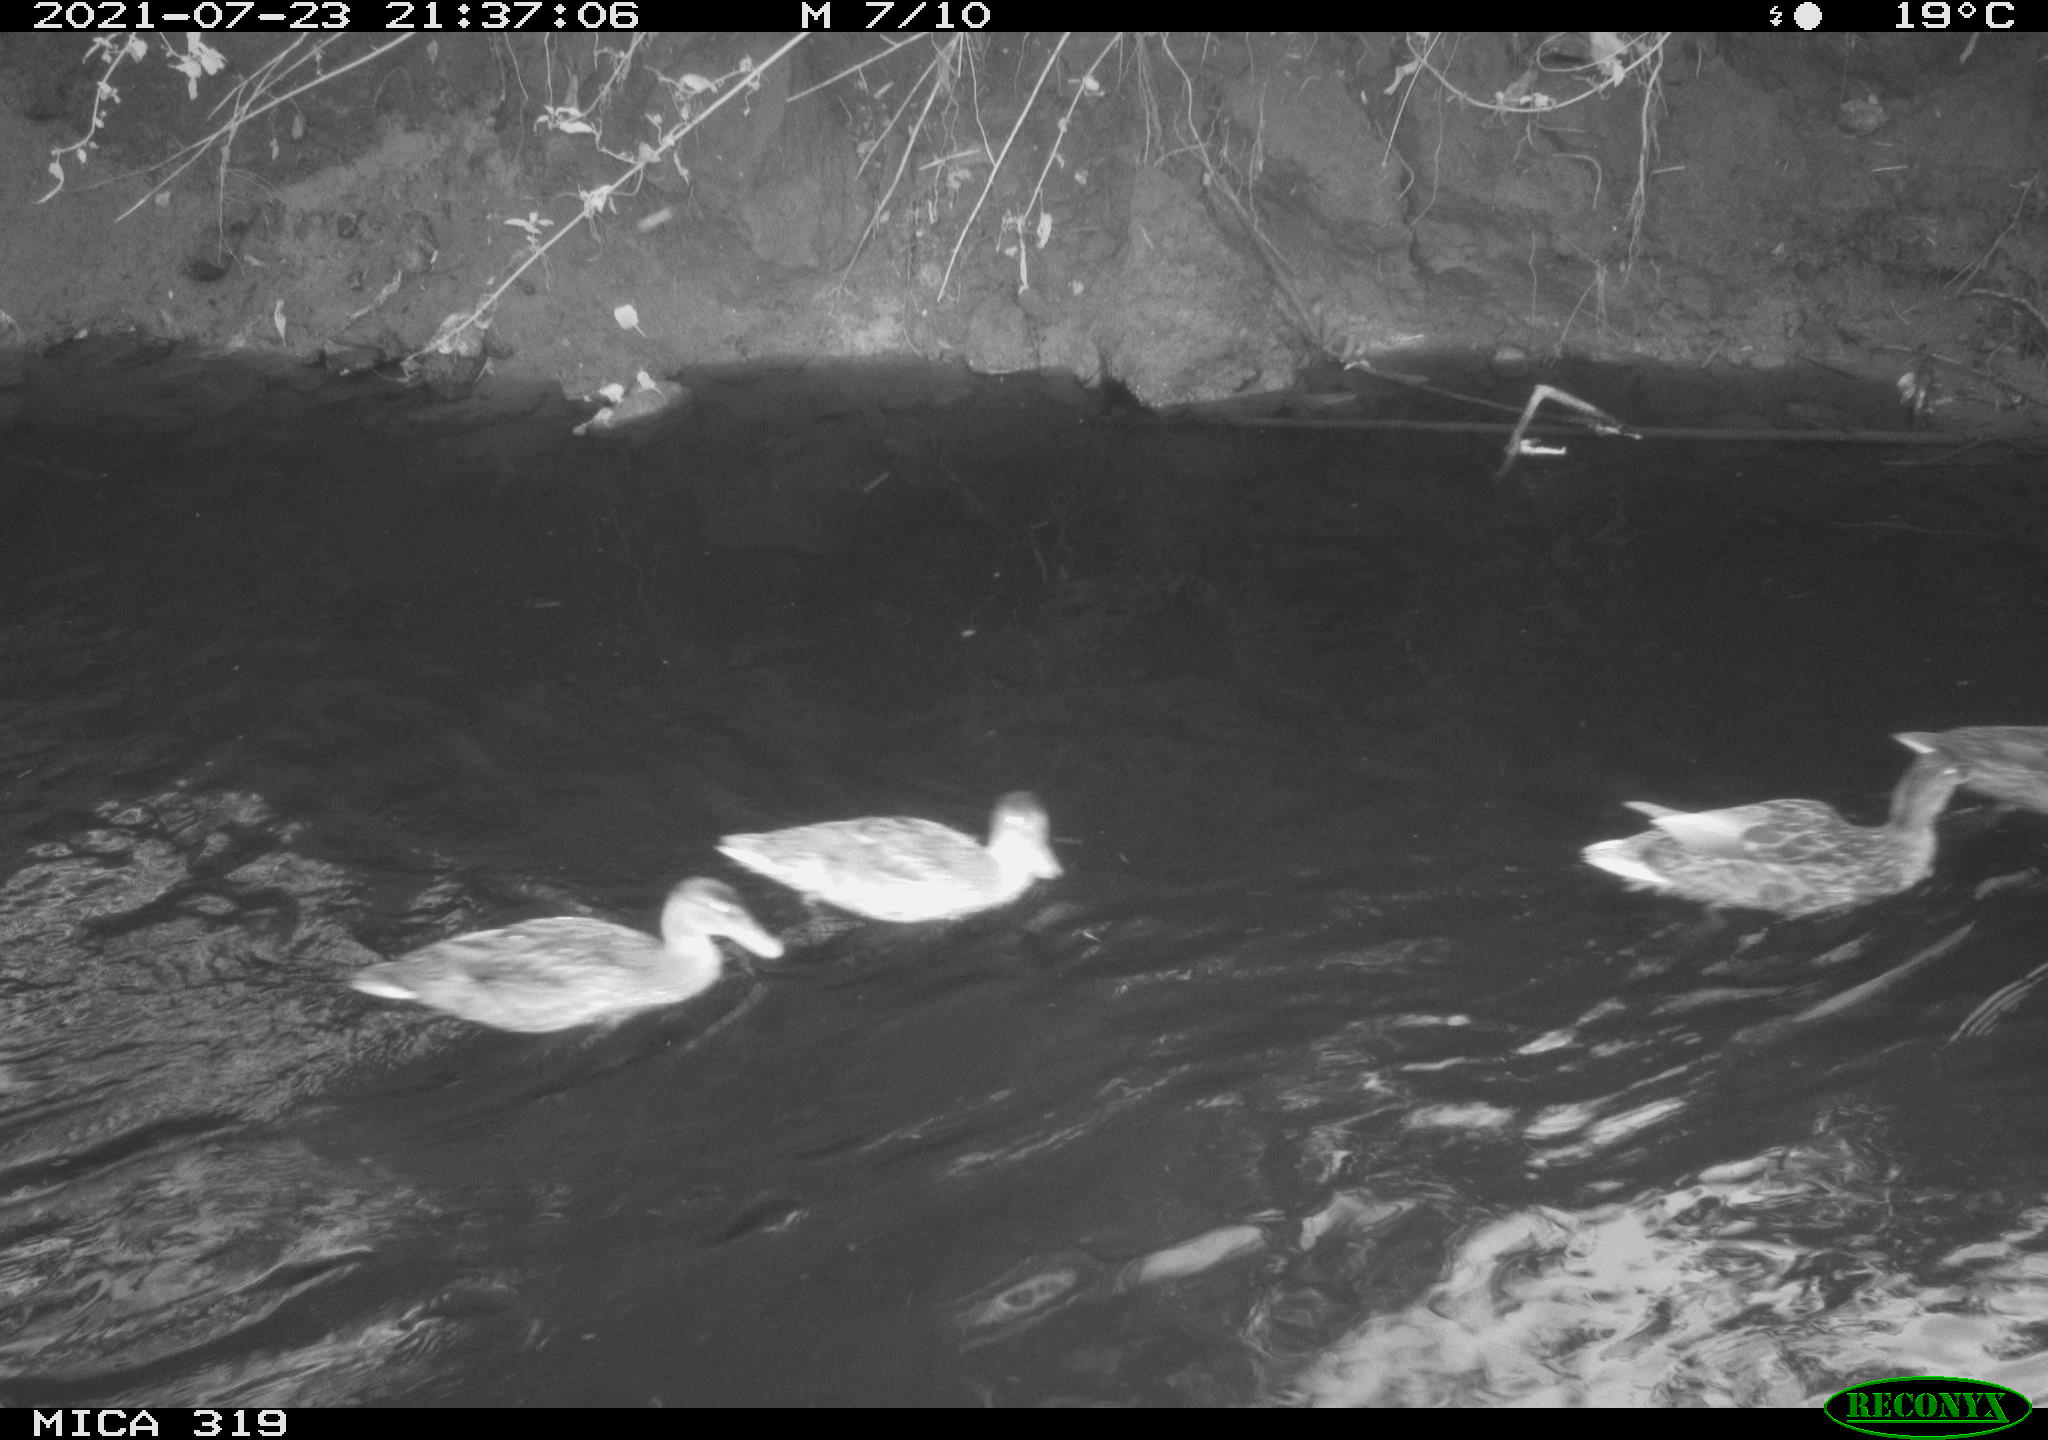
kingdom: Animalia
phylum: Chordata
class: Aves
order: Anseriformes
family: Anatidae
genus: Anas
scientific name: Anas platyrhynchos
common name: Mallard
